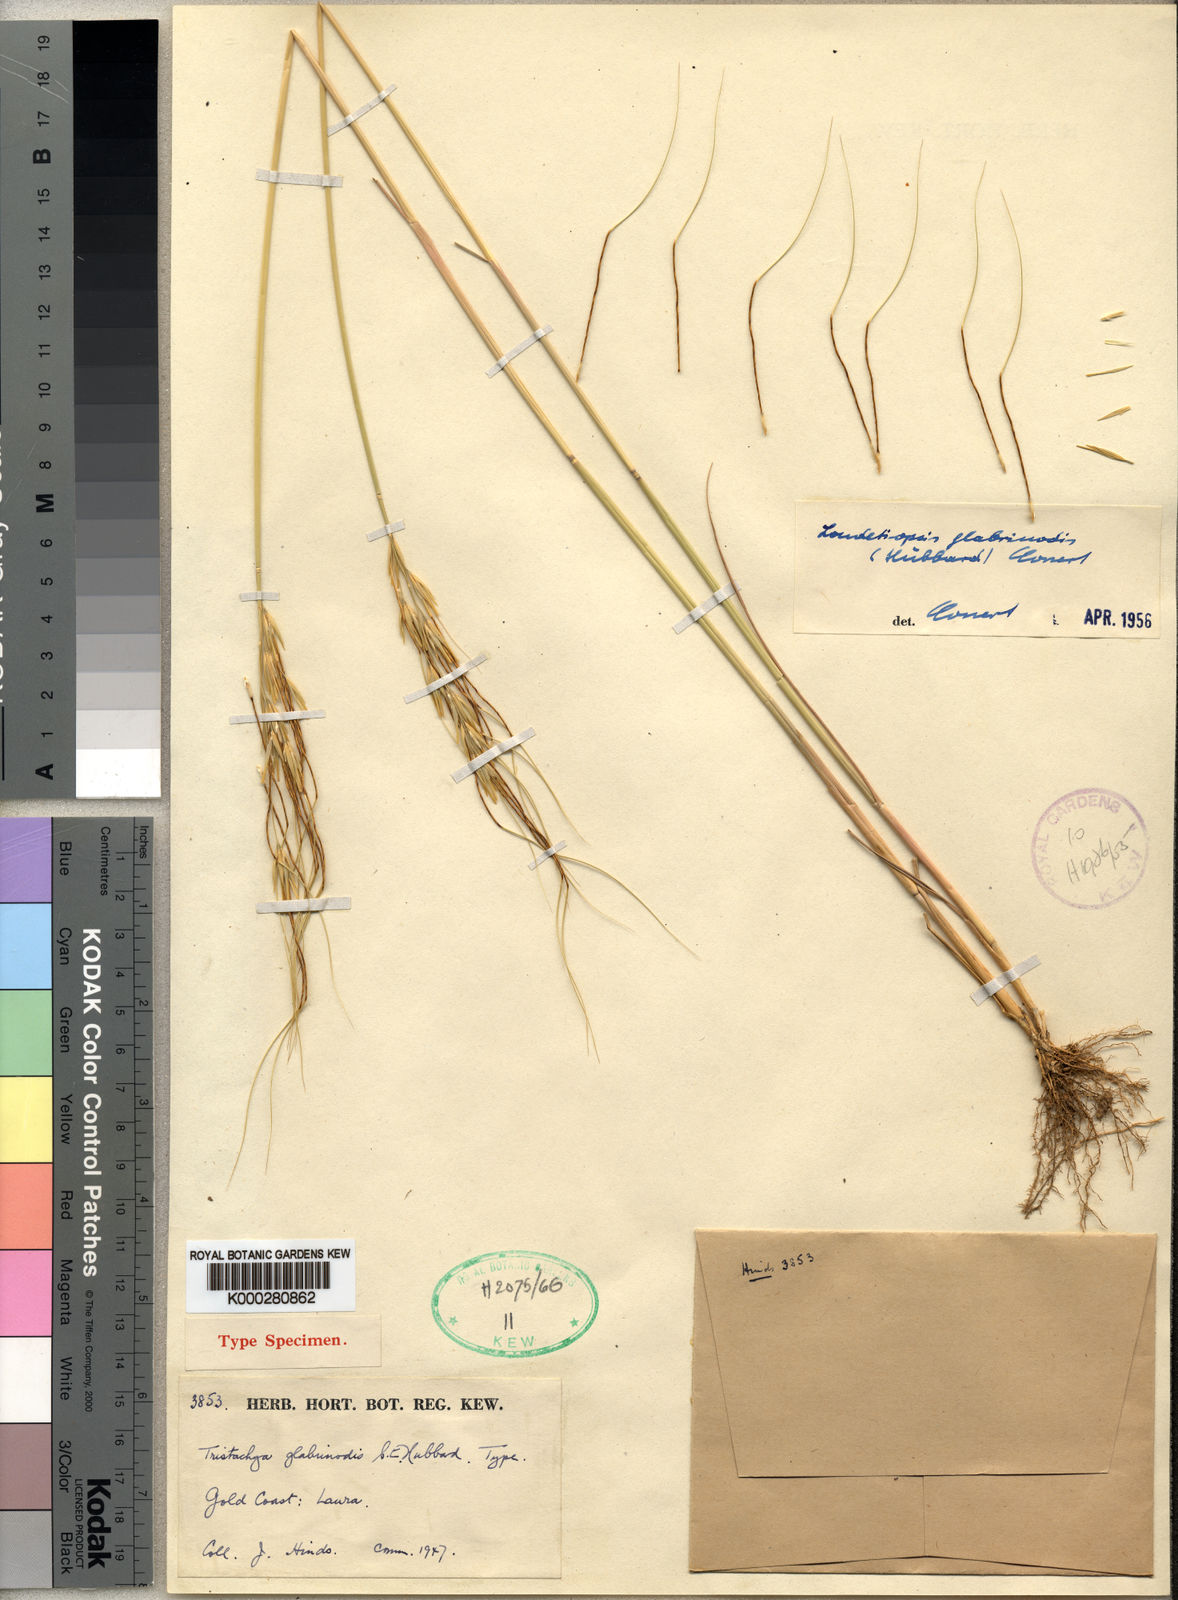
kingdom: Plantae
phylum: Tracheophyta
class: Liliopsida
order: Poales
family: Poaceae
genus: Loudetiopsis
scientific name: Loudetiopsis kerstingii
